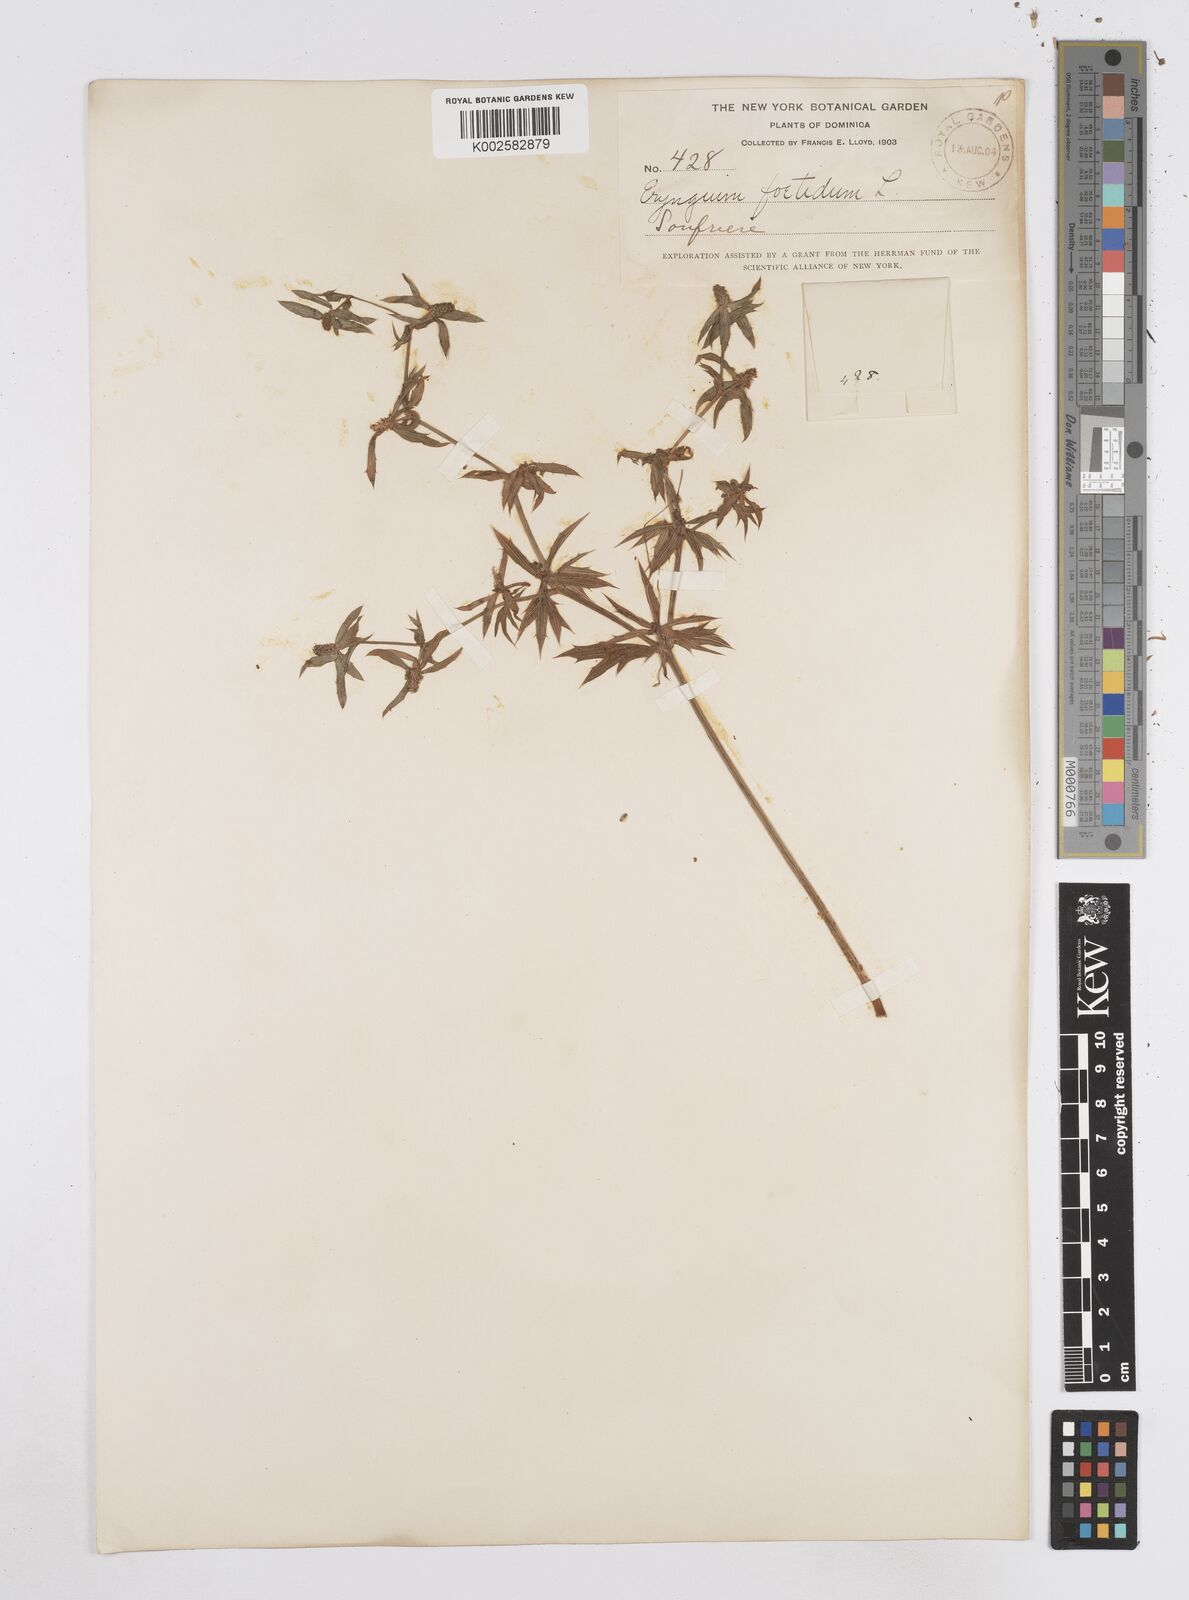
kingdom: Plantae
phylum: Tracheophyta
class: Magnoliopsida
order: Apiales
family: Apiaceae
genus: Eryngium
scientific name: Eryngium foetidum
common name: Fitweed
